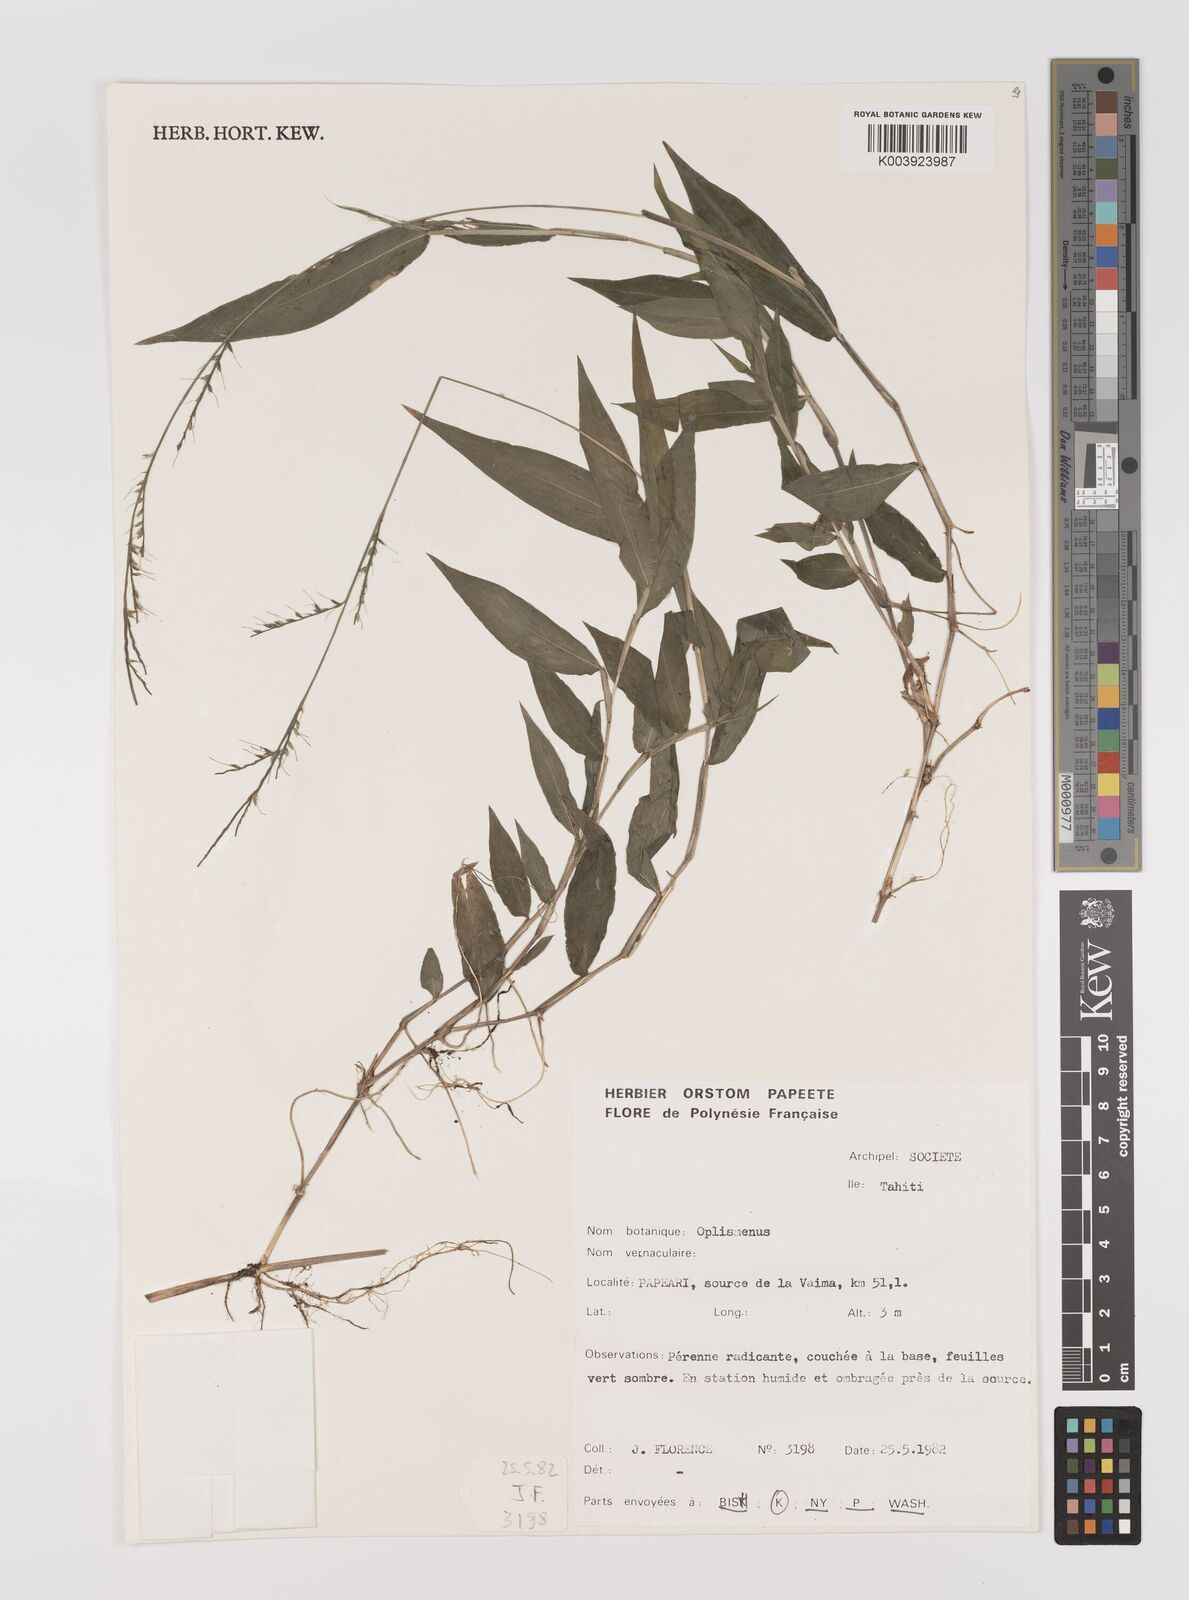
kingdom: Plantae
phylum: Tracheophyta
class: Liliopsida
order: Poales
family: Poaceae
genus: Oplismenus
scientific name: Oplismenus compositus
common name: Running mountain grass
